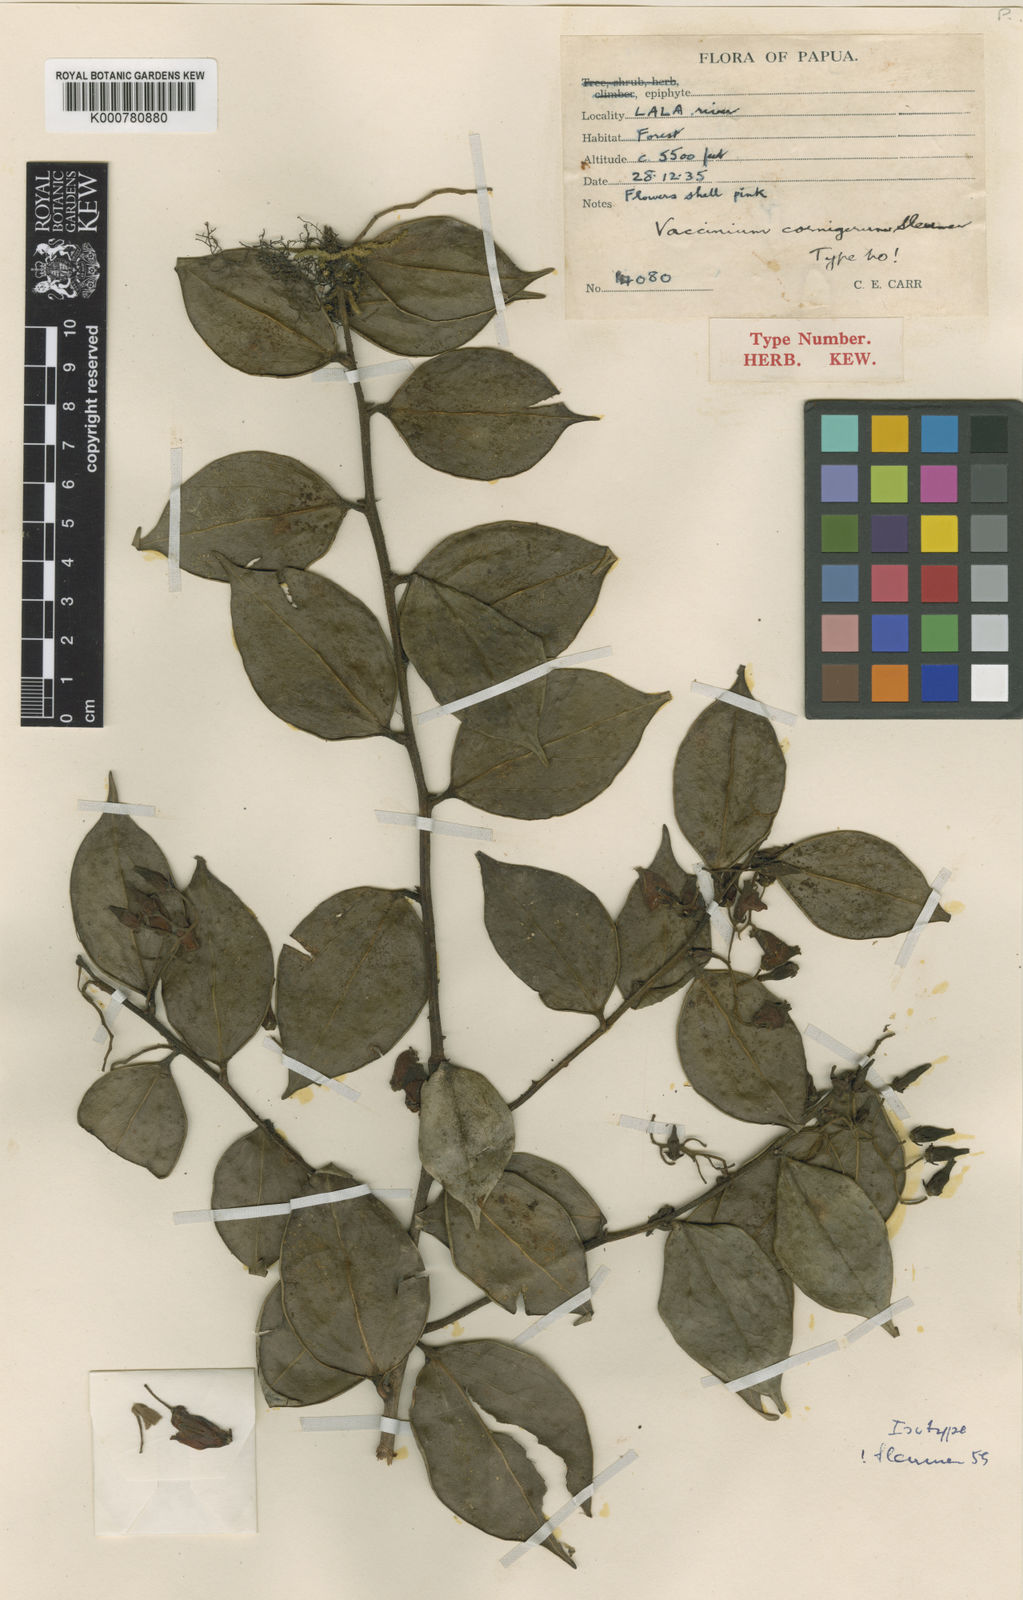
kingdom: Plantae
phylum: Tracheophyta
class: Magnoliopsida
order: Ericales
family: Ericaceae
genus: Vaccinium
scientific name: Vaccinium cornigerum
